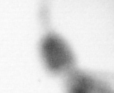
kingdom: Animalia
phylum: Arthropoda
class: Copepoda
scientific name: Copepoda
